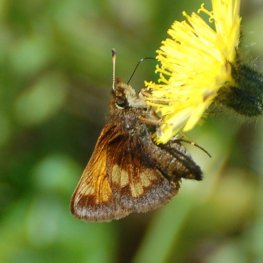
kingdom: Animalia
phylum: Arthropoda
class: Insecta
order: Lepidoptera
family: Hesperiidae
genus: Lon
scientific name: Lon hobomok
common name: Hobomok Skipper
